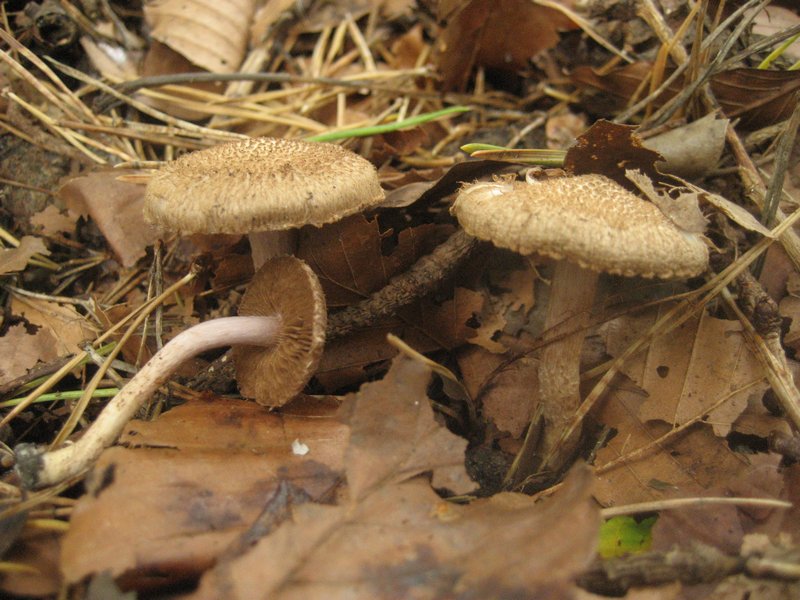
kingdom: Fungi
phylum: Basidiomycota
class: Agaricomycetes
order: Agaricales
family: Inocybaceae
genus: Inocybe
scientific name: Inocybe cincinnata
